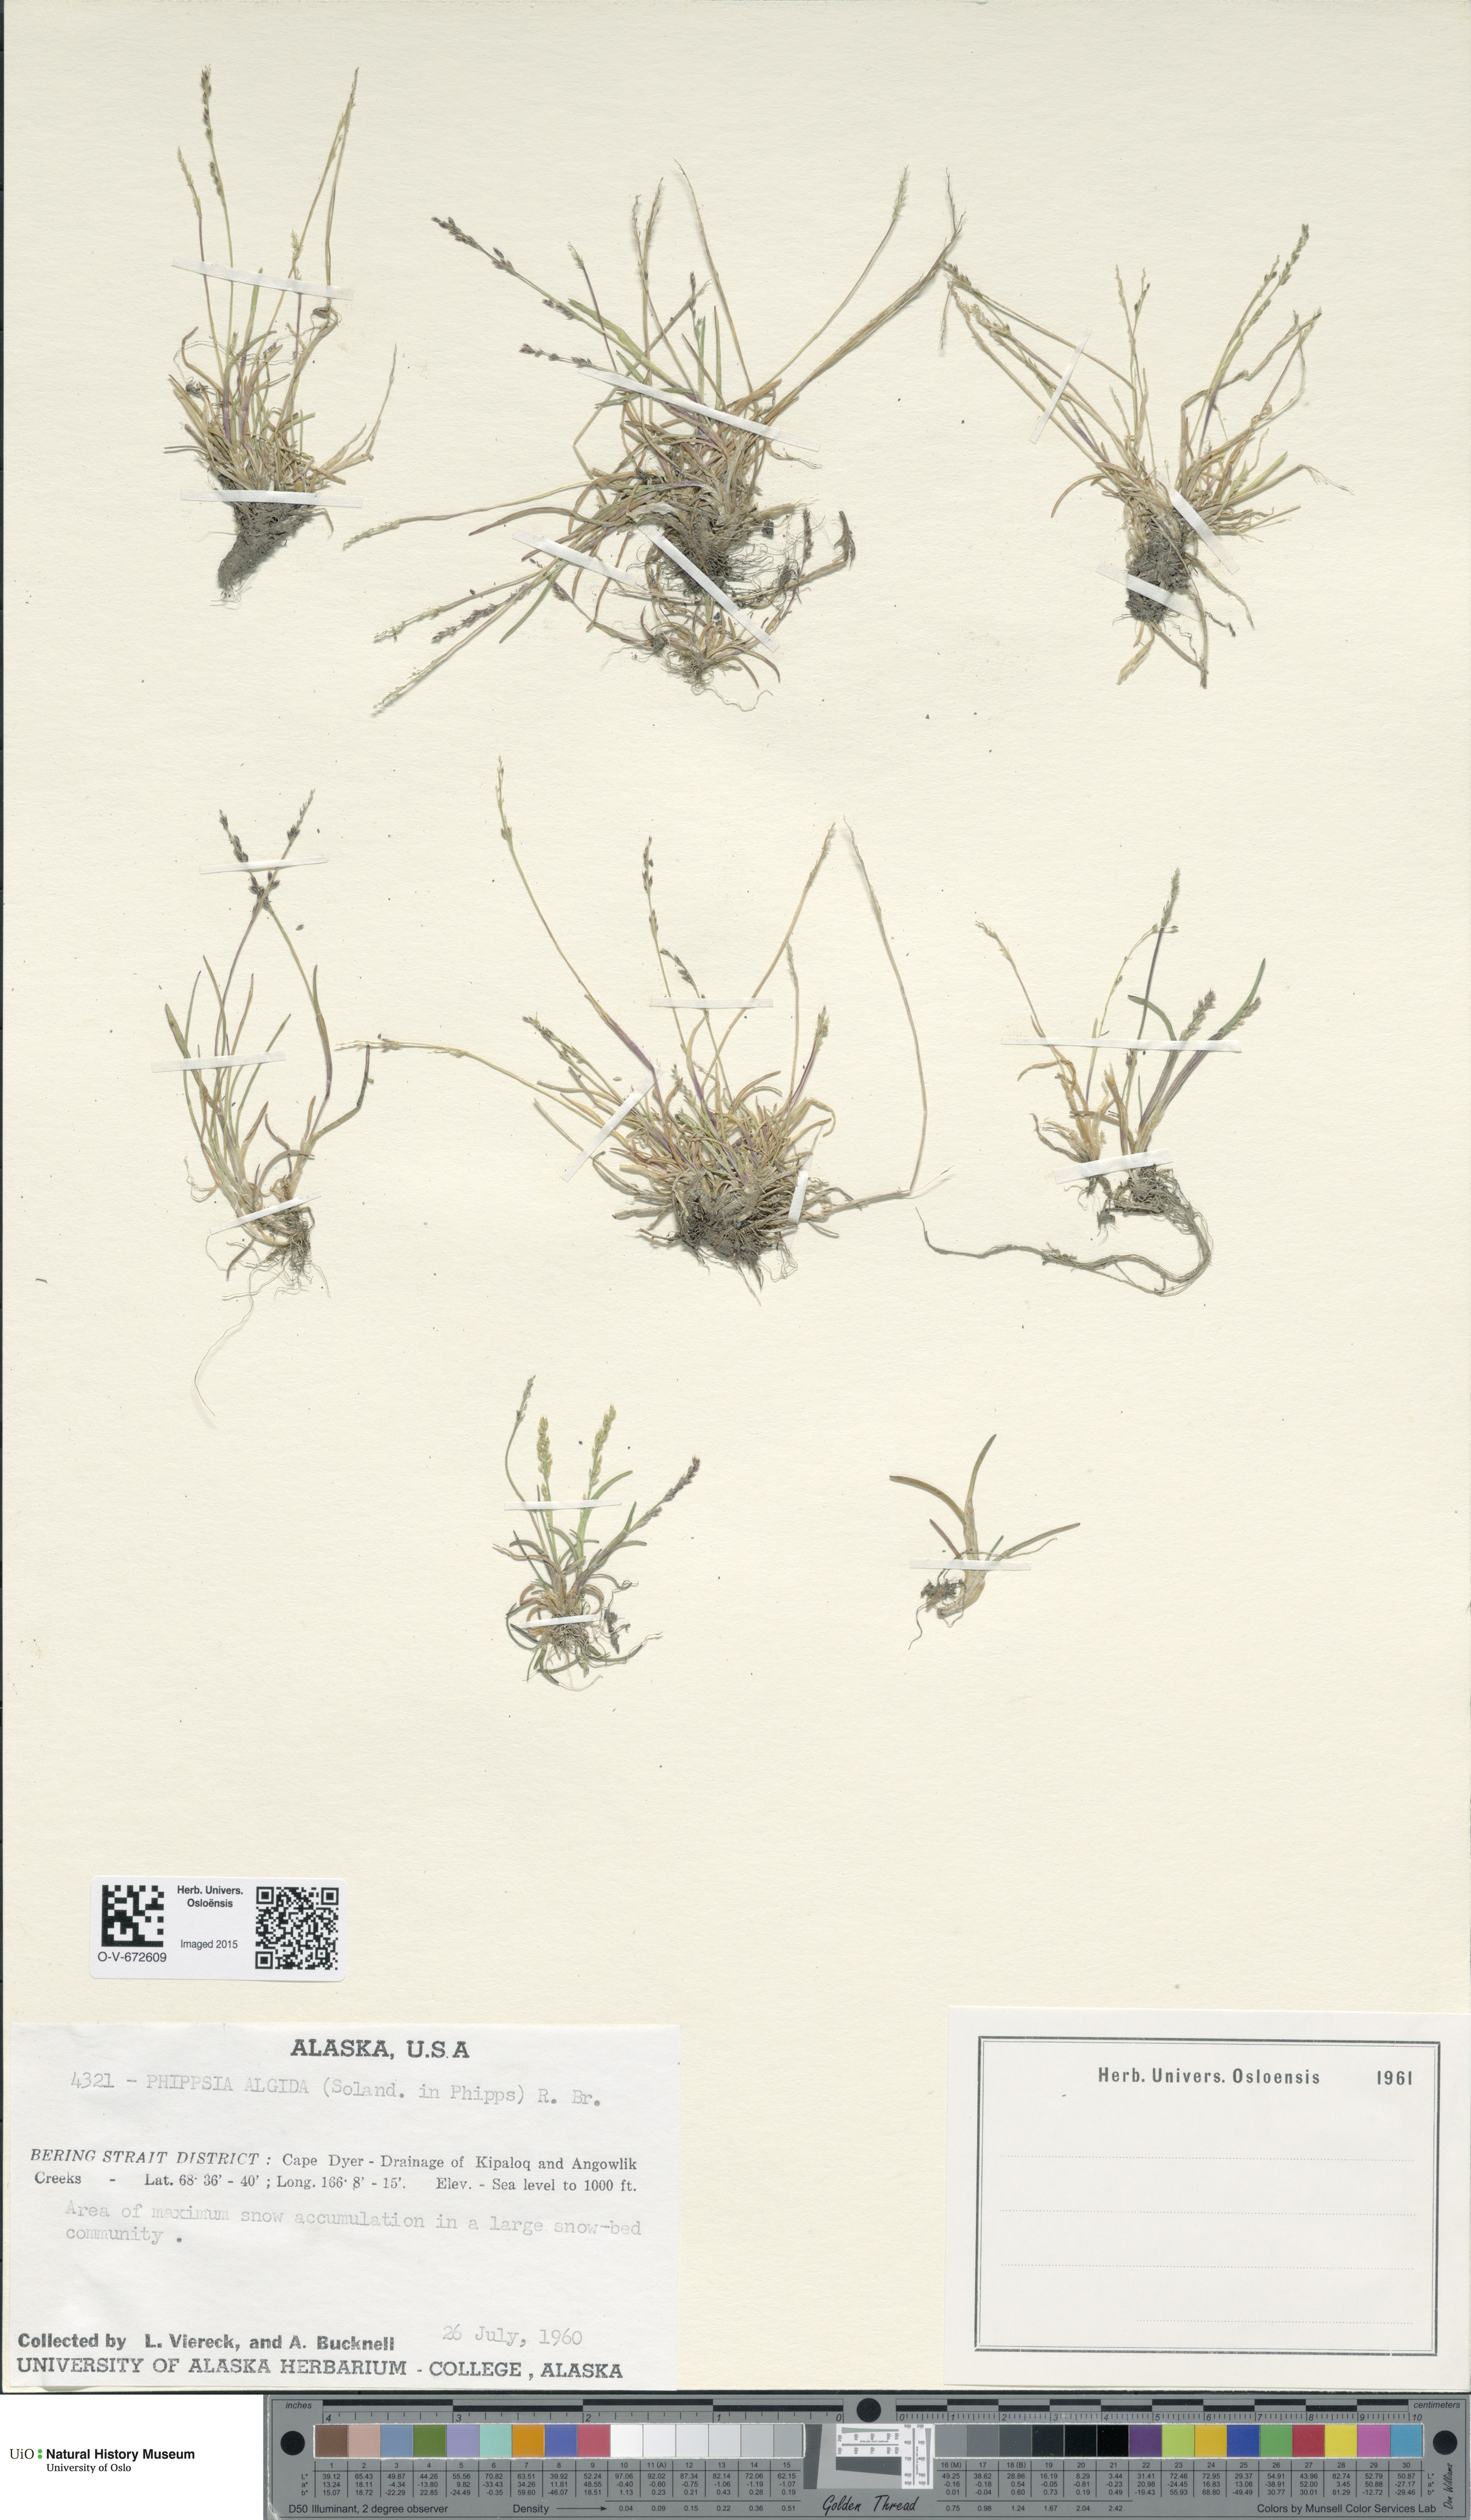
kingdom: Plantae
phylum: Tracheophyta
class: Liliopsida
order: Poales
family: Poaceae
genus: Phippsia
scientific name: Phippsia algida
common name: Ice grass
